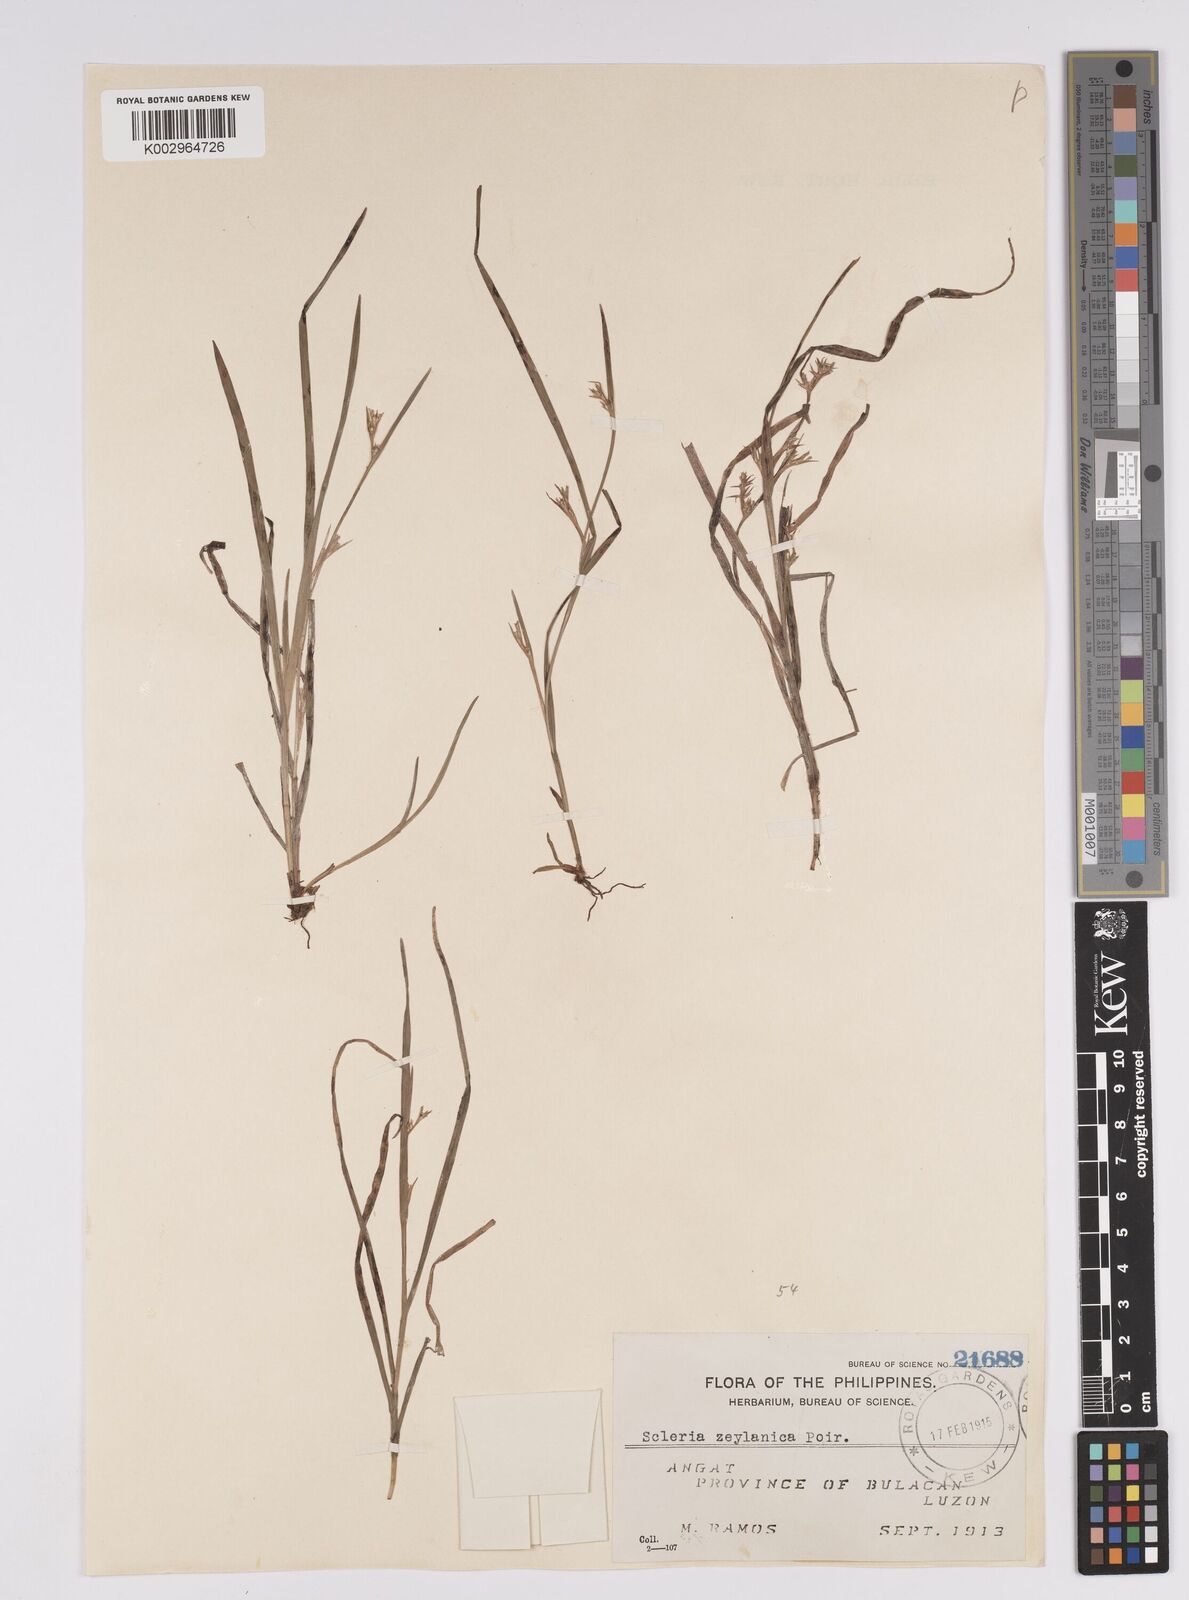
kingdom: Plantae
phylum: Tracheophyta
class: Liliopsida
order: Poales
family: Cyperaceae
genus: Scleria
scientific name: Scleria levis
